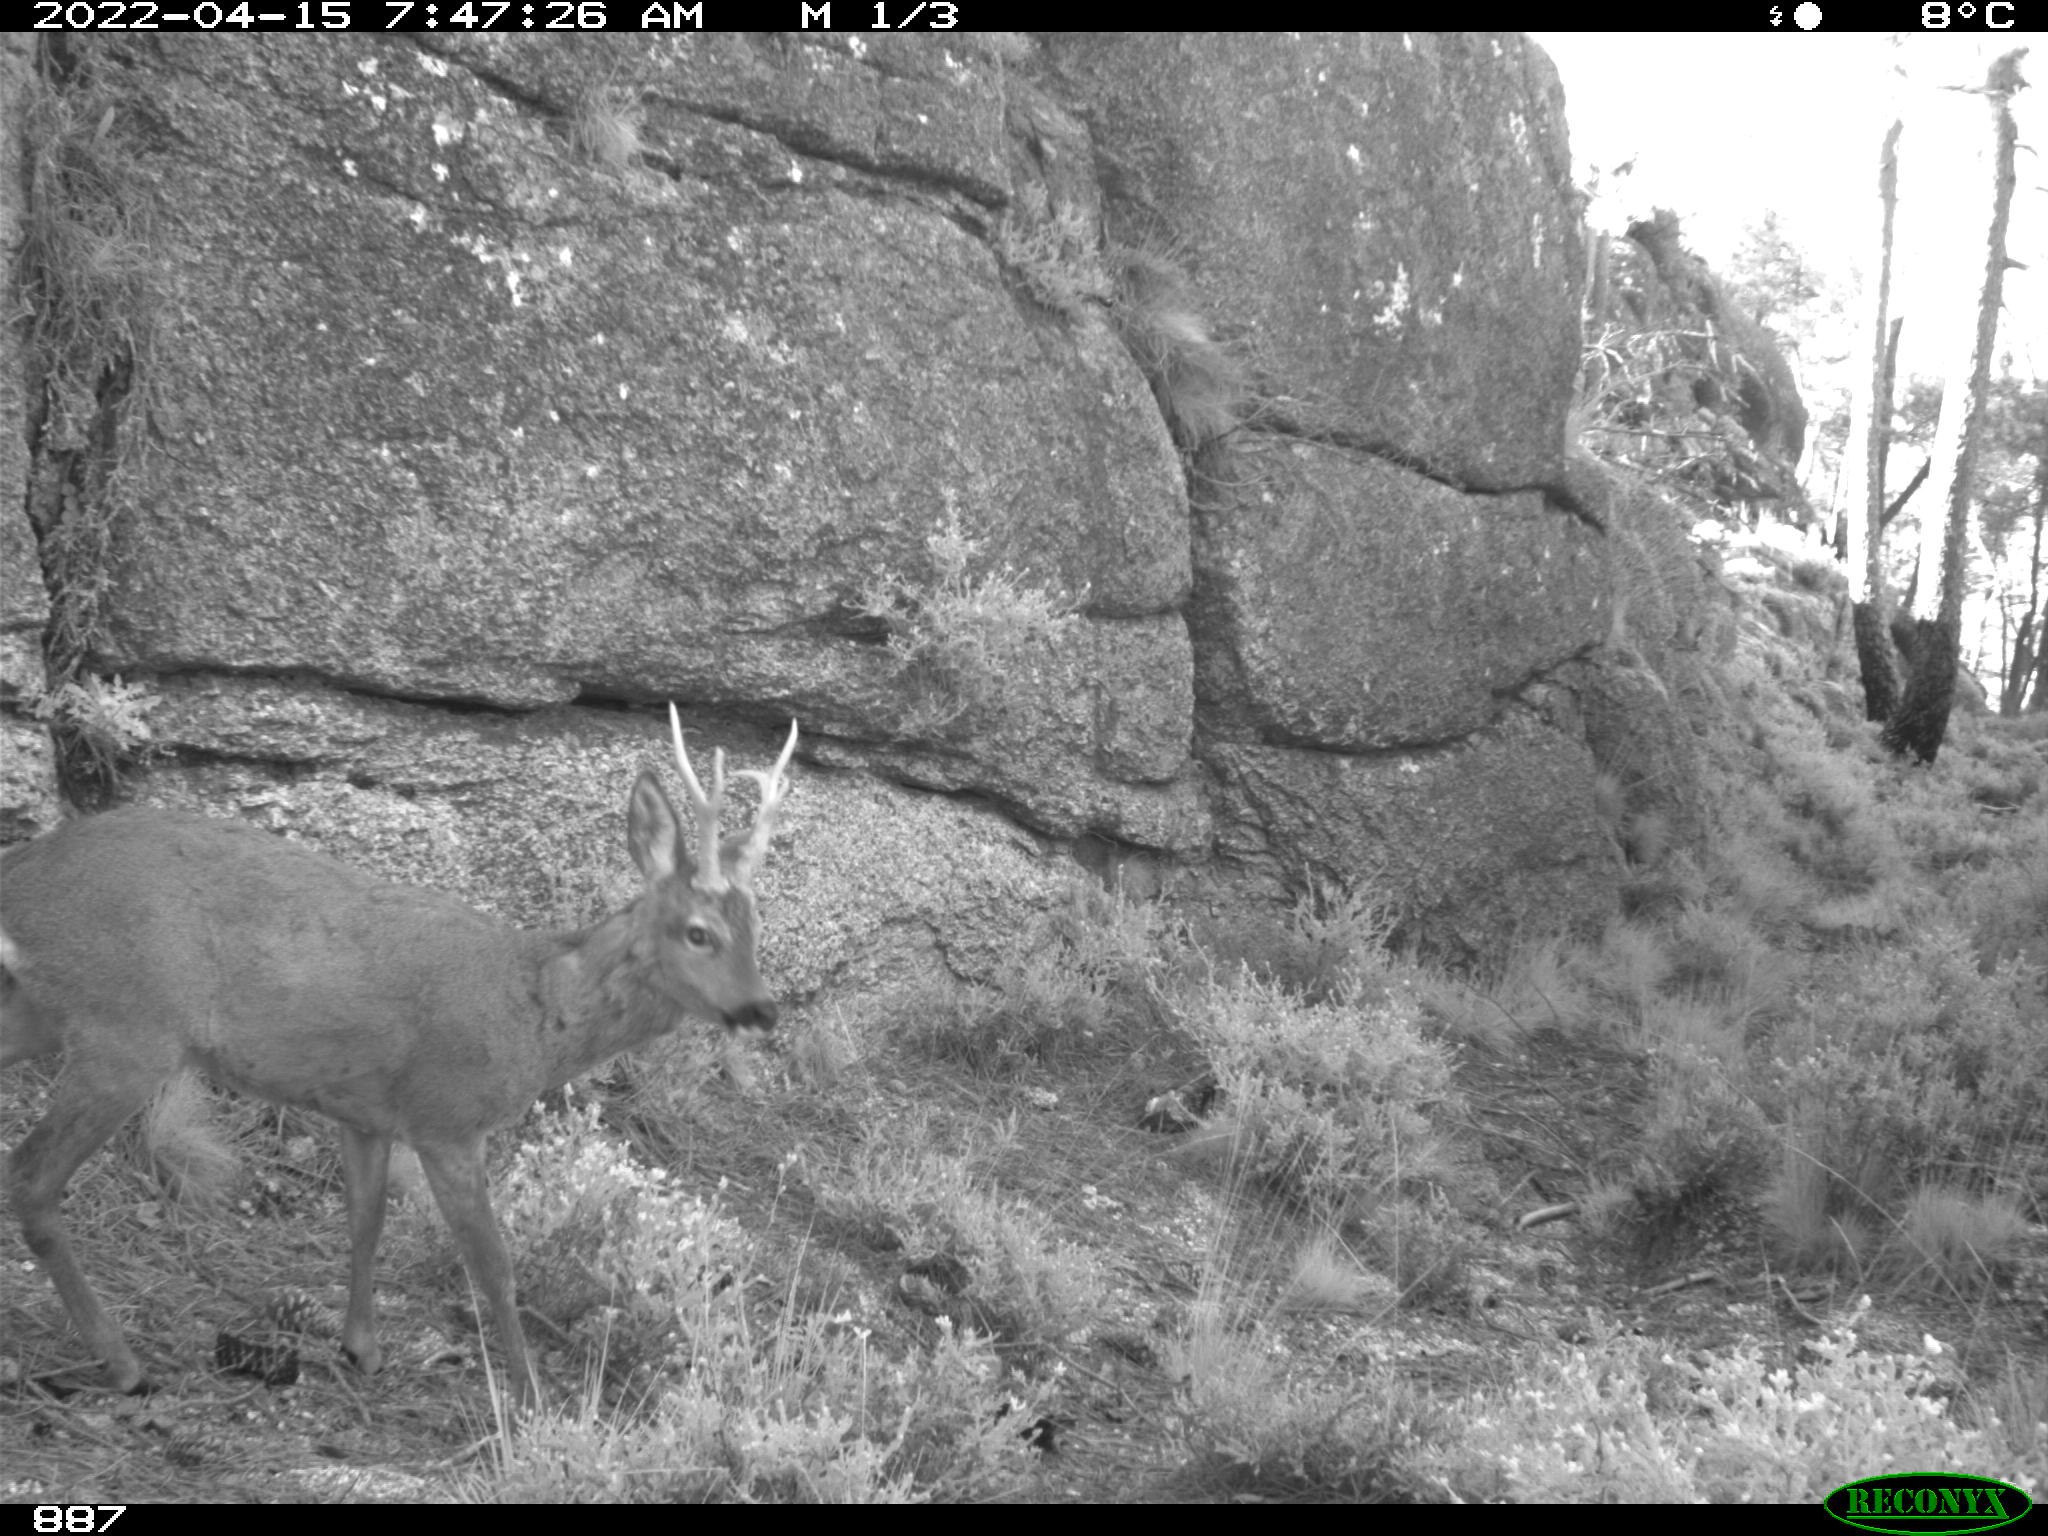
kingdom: Animalia
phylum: Chordata
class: Mammalia
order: Artiodactyla
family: Cervidae
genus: Capreolus
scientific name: Capreolus capreolus
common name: Western roe deer
